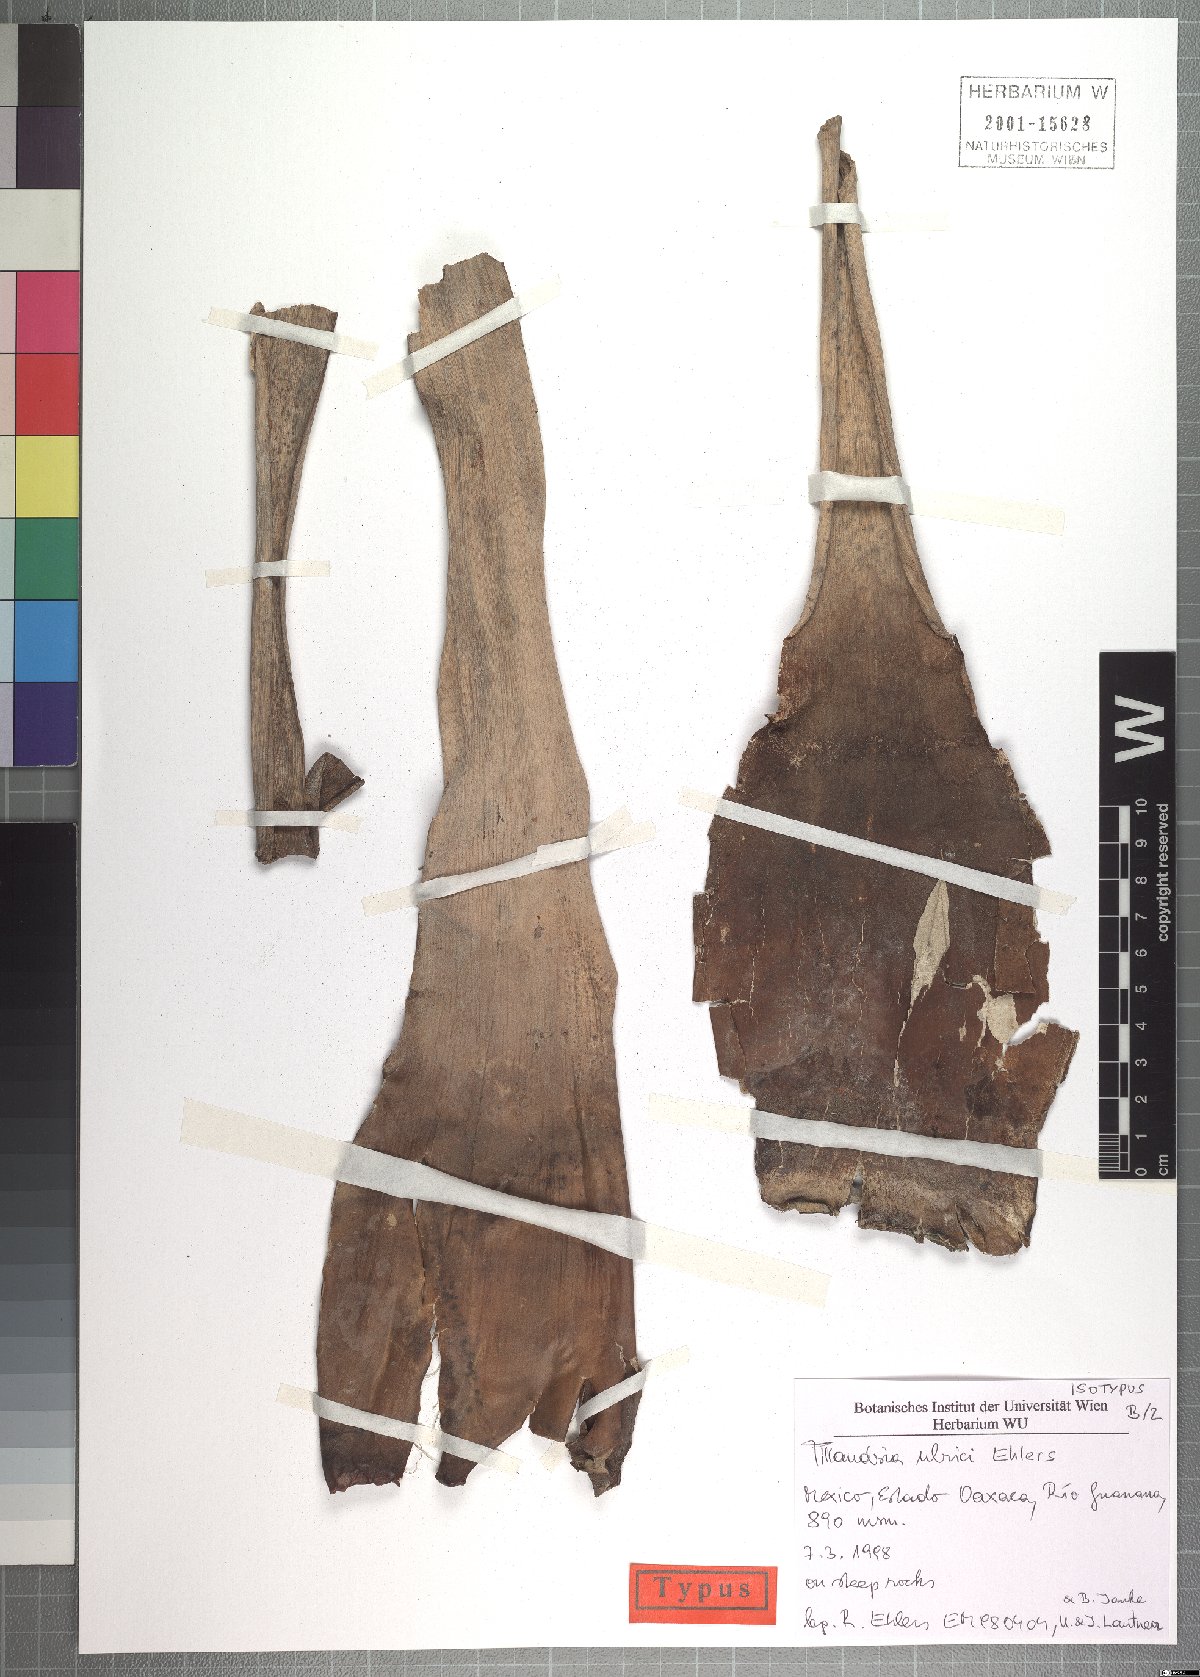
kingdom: Plantae
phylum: Tracheophyta
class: Liliopsida
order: Poales
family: Bromeliaceae
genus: Tillandsia
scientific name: Tillandsia ulrici
